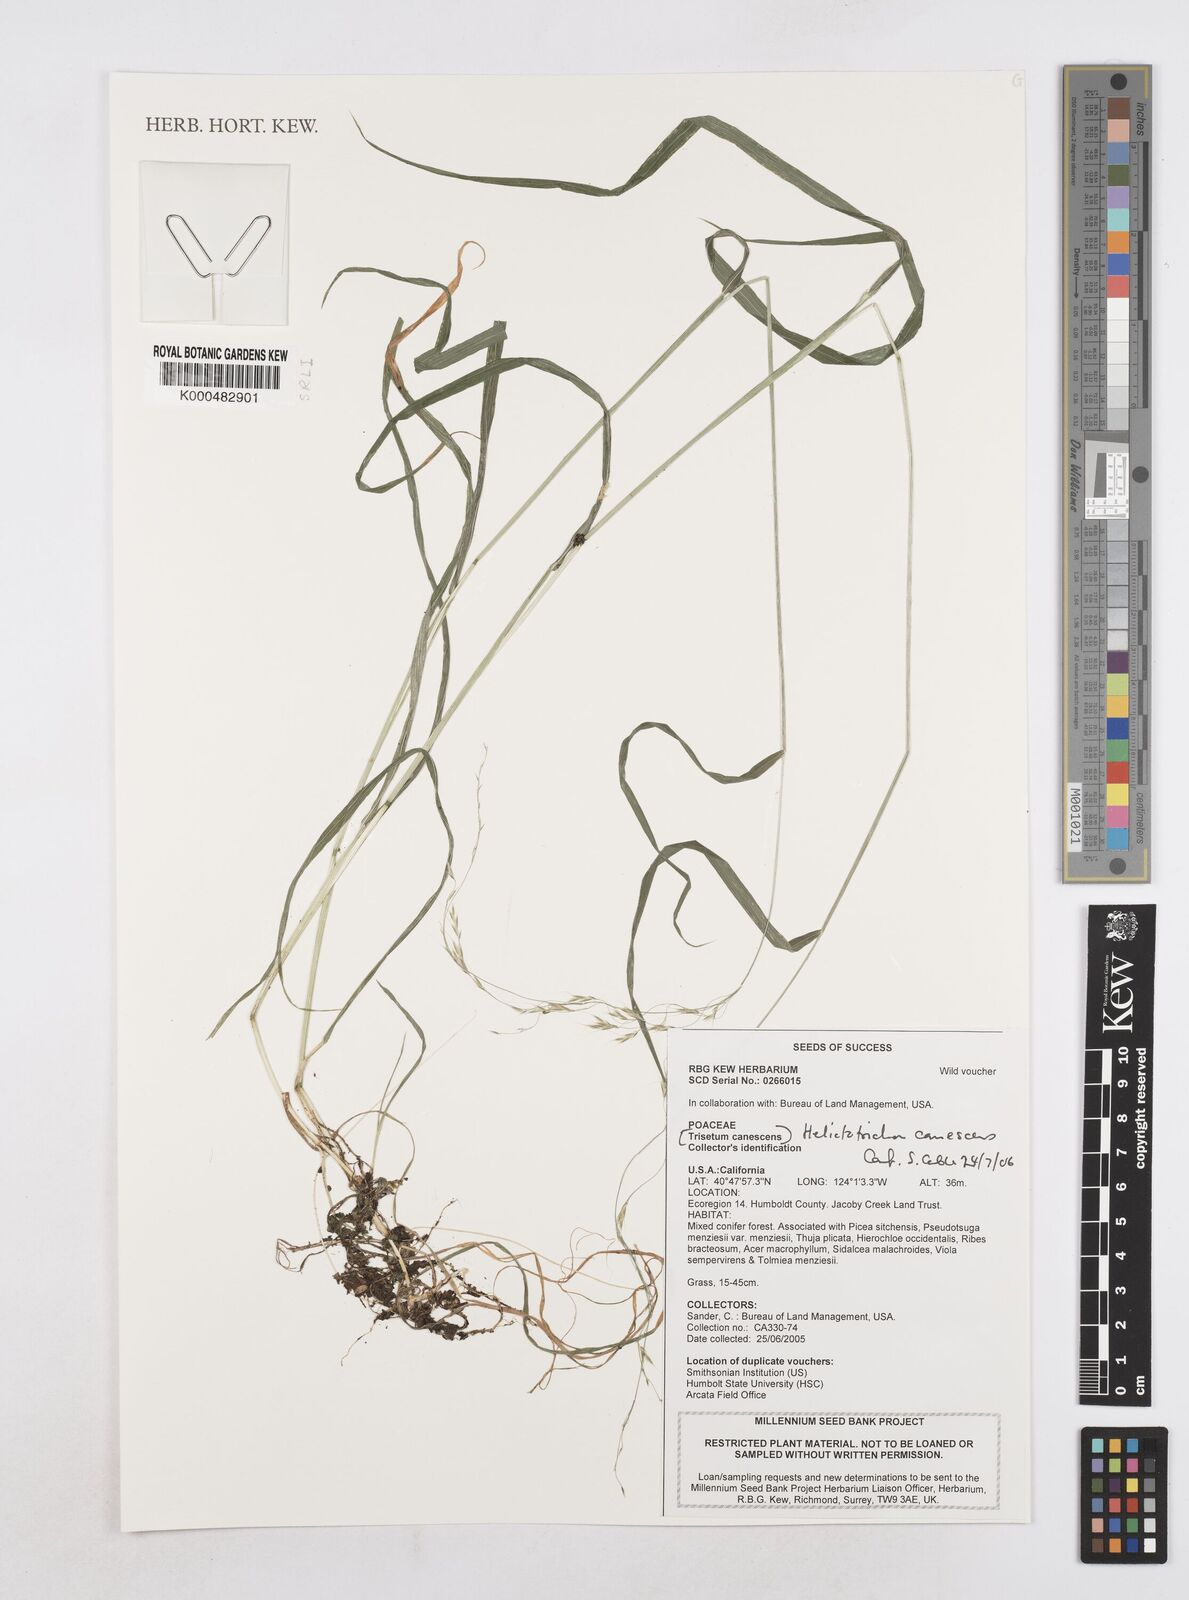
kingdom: Plantae
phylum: Tracheophyta
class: Liliopsida
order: Poales
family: Poaceae
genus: Graphephorum
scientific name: Graphephorum canescens
